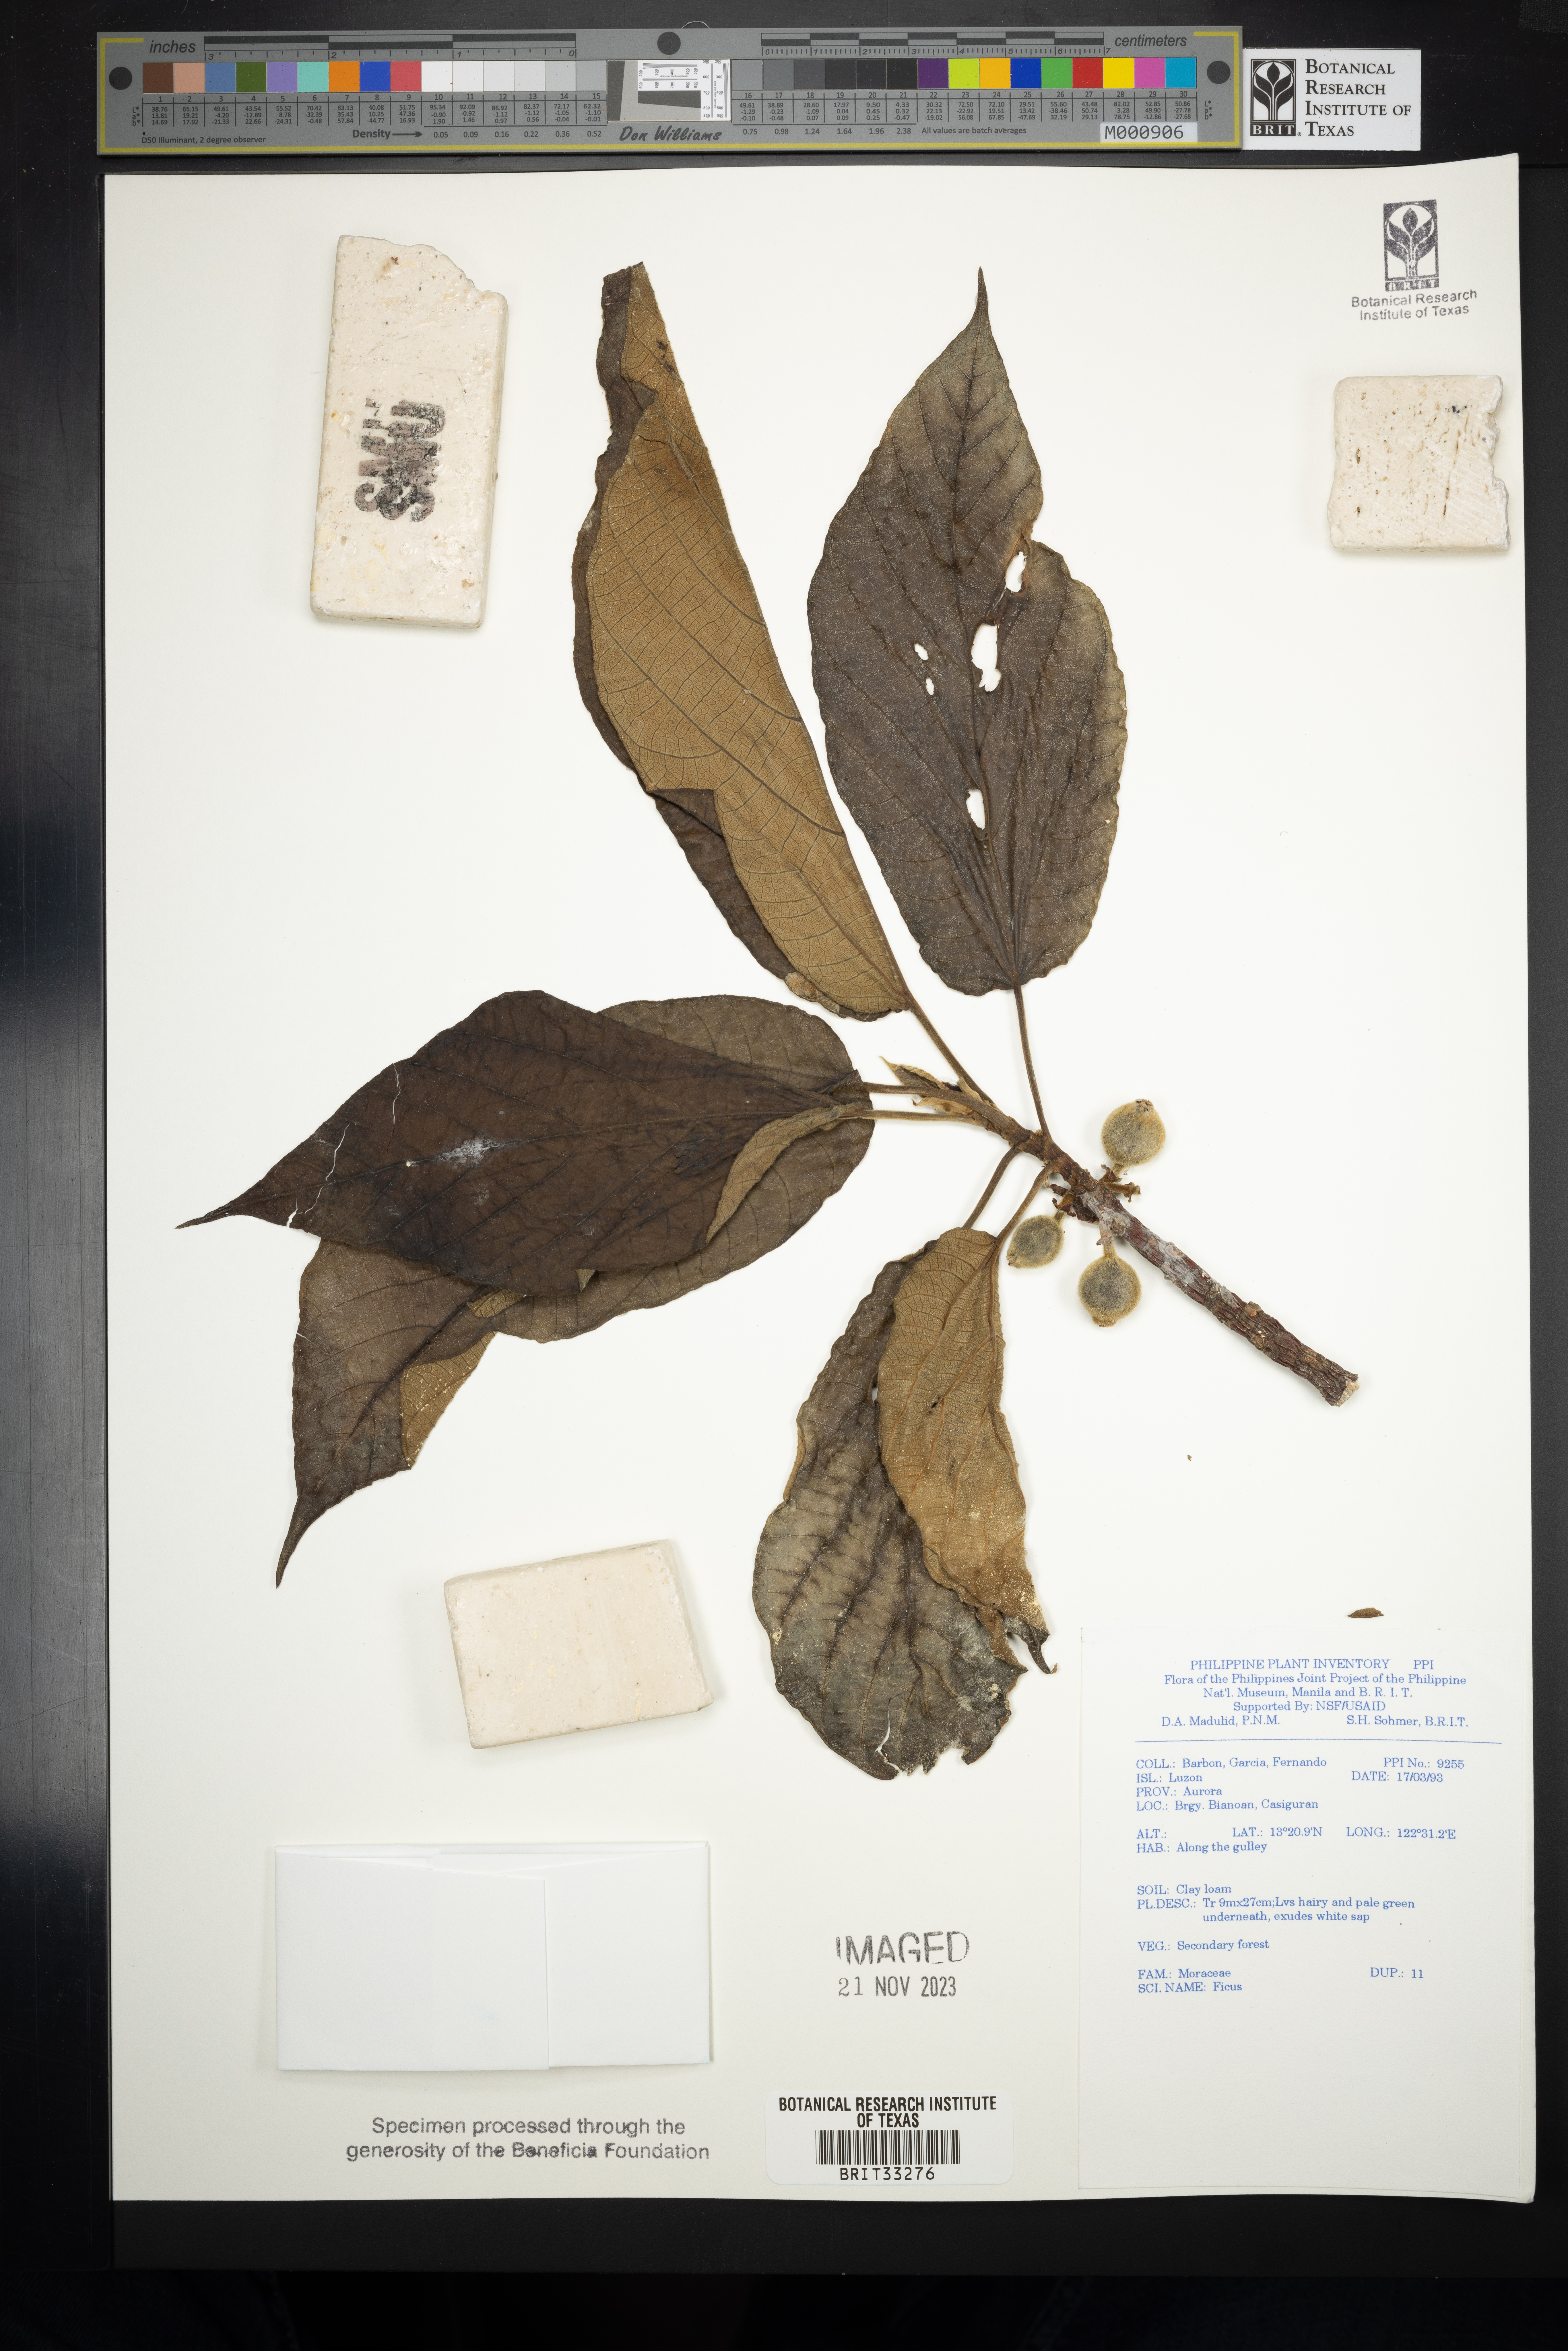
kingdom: Plantae
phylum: Tracheophyta
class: Magnoliopsida
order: Rosales
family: Moraceae
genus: Ficus
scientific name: Ficus
